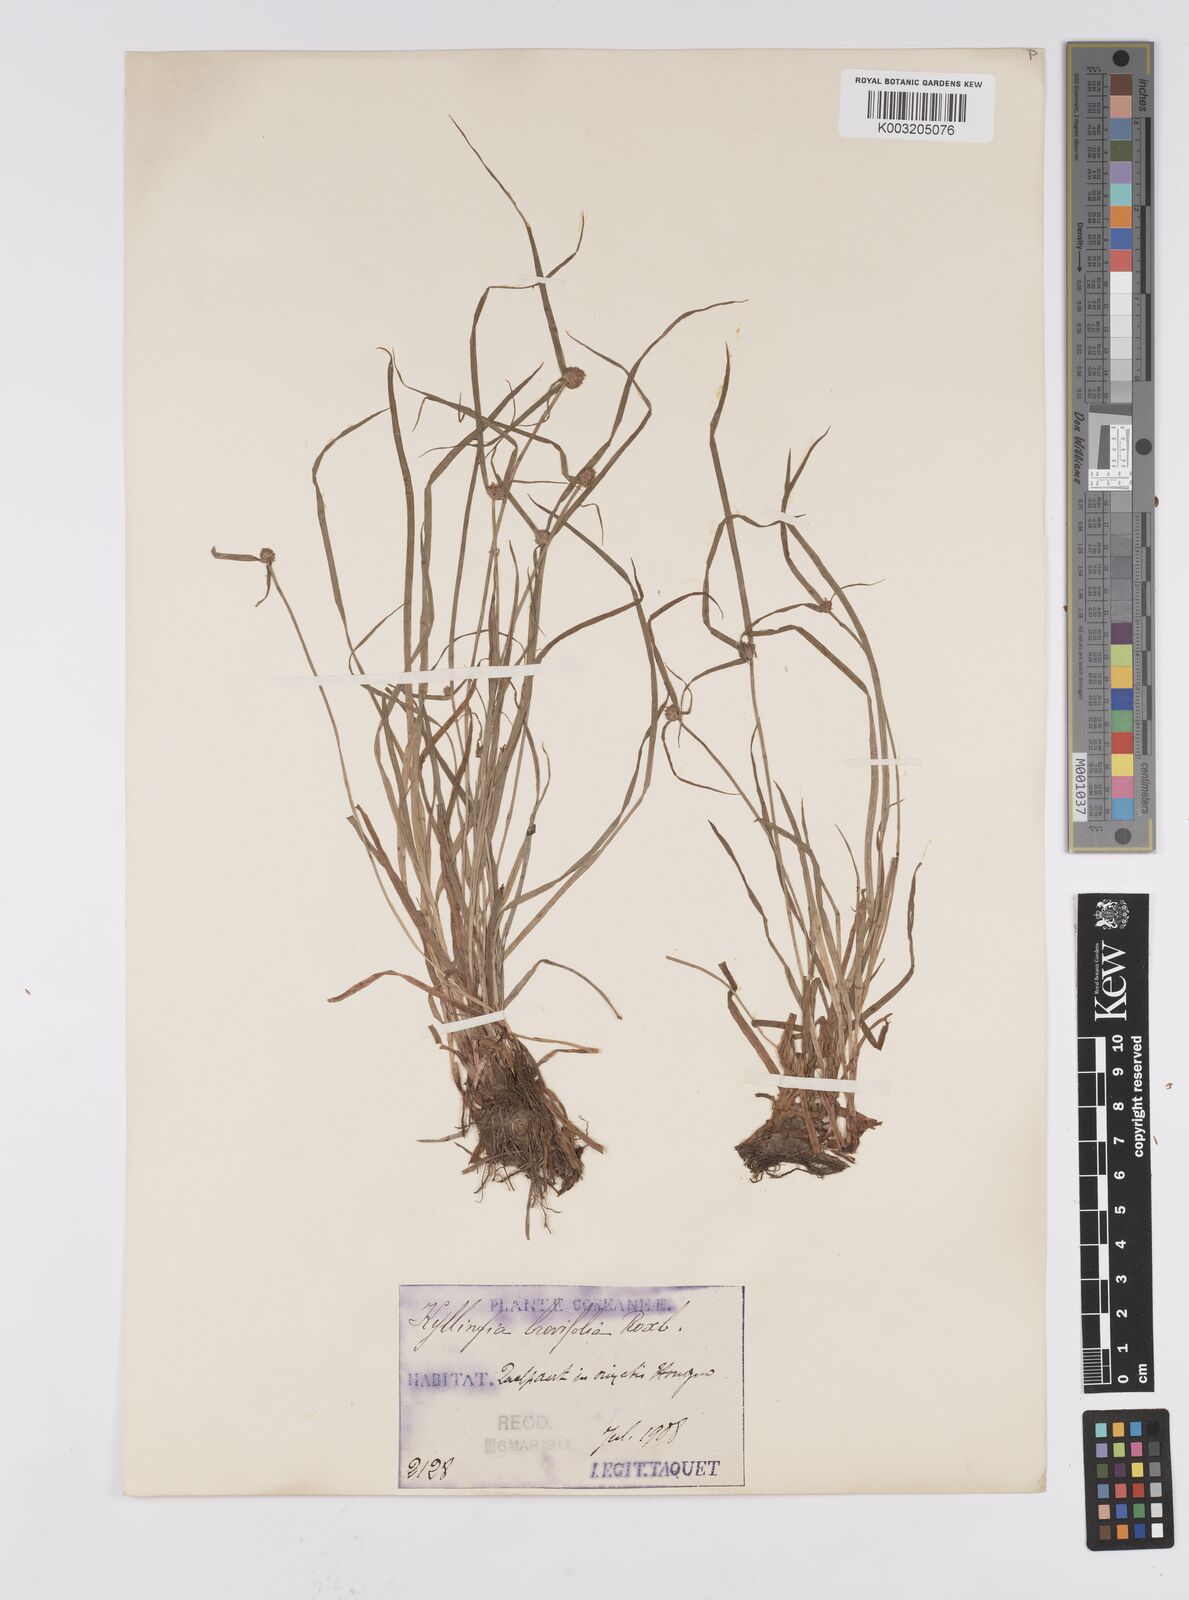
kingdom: Plantae
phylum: Tracheophyta
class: Liliopsida
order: Poales
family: Cyperaceae
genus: Cyperus
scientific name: Cyperus brevifolius
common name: Globe kyllinga
